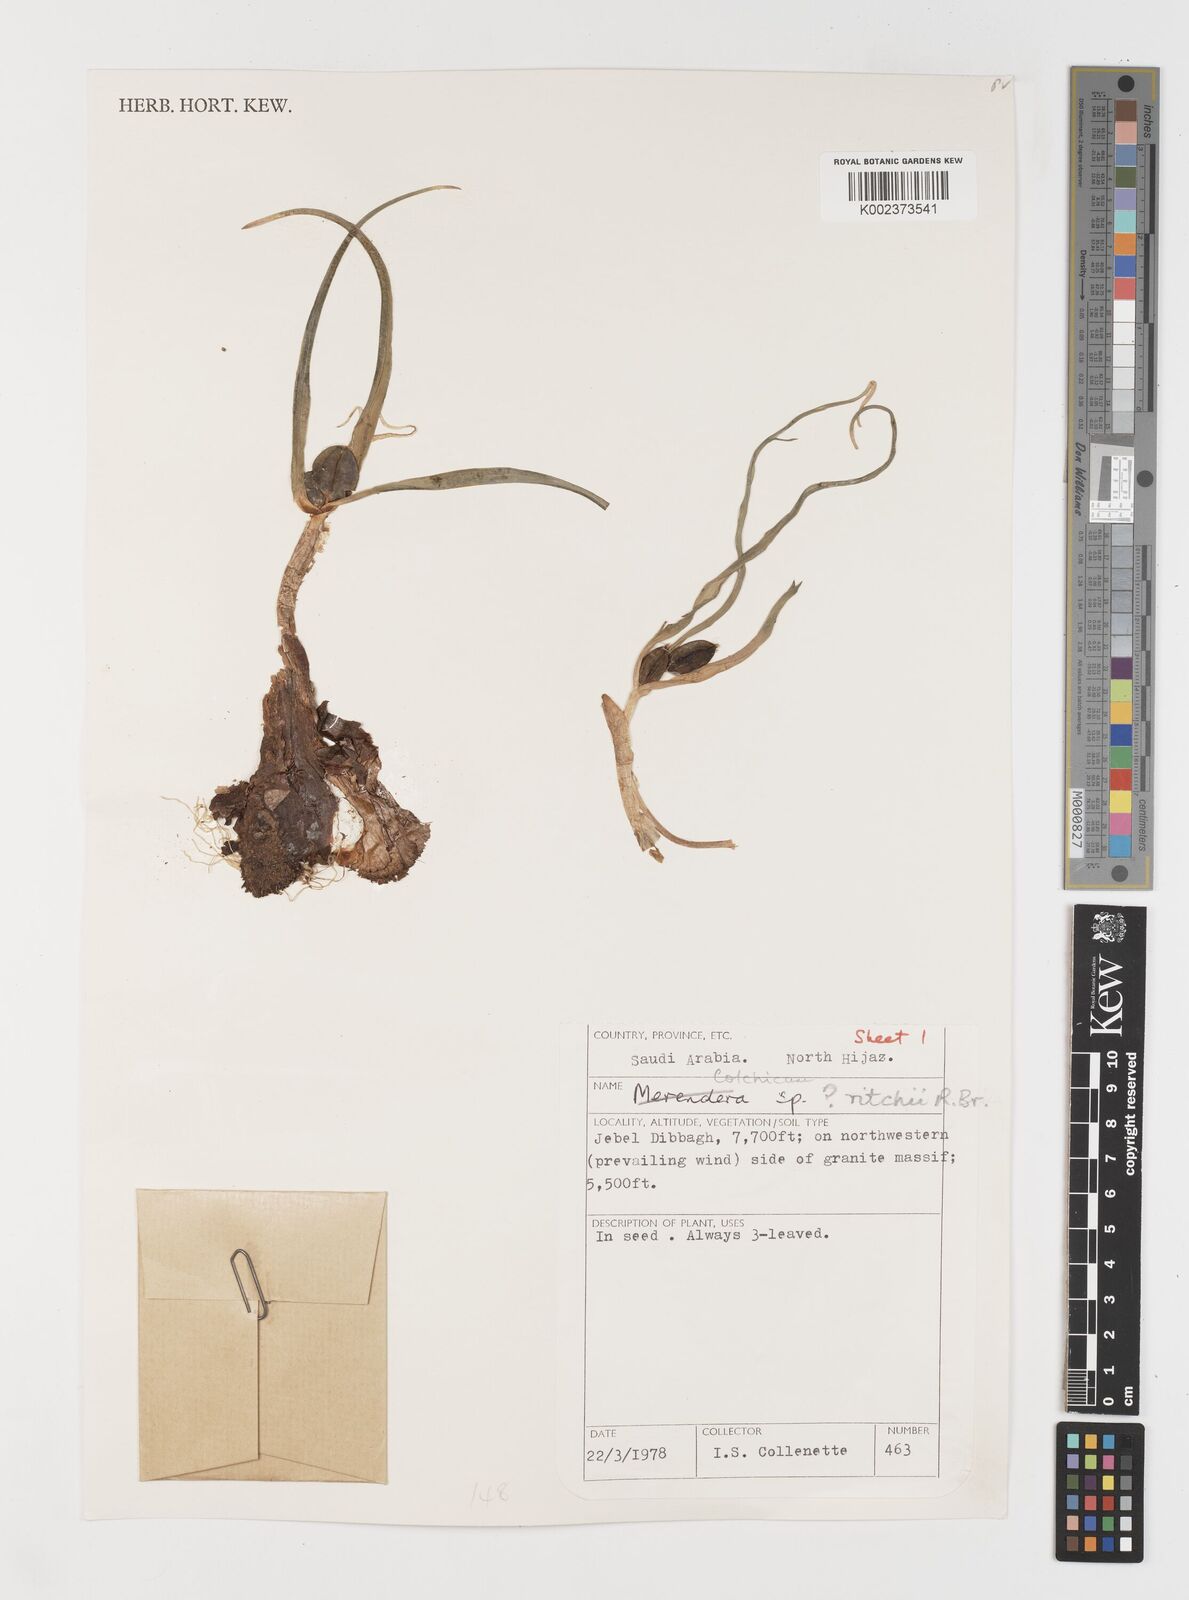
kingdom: Plantae
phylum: Tracheophyta
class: Liliopsida
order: Liliales
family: Colchicaceae
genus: Colchicum
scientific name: Colchicum ritchii
